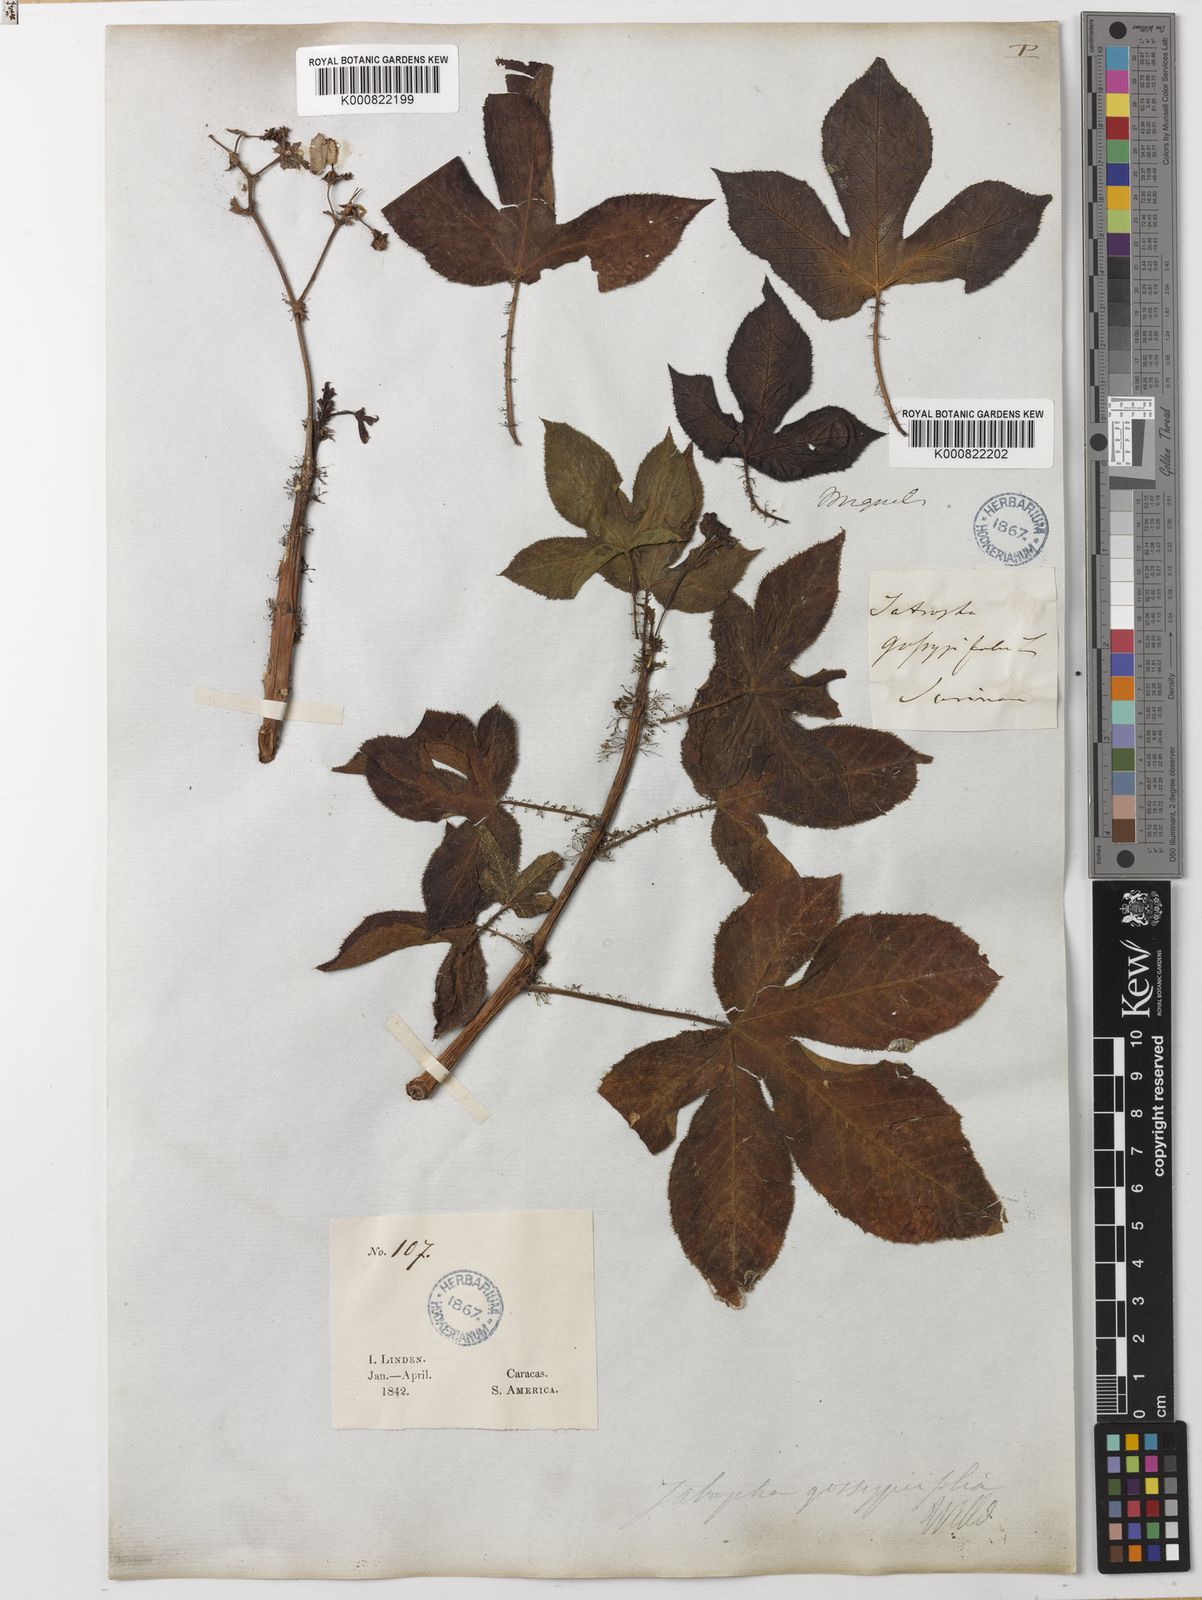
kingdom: Plantae
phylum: Tracheophyta
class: Magnoliopsida
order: Malpighiales
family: Euphorbiaceae
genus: Jatropha
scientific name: Jatropha gossypiifolia
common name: Bellyache bush
